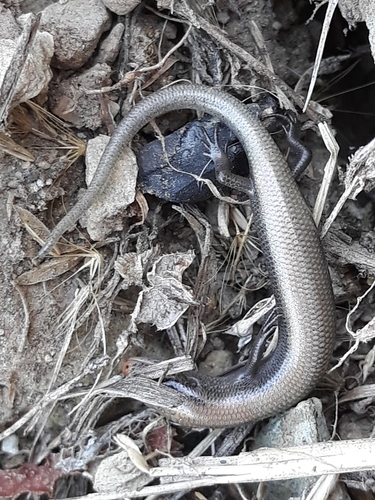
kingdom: Animalia
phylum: Chordata
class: Squamata
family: Scincidae
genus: Chalcides
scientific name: Chalcides bedriagai
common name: Spanish cylindrical skink
